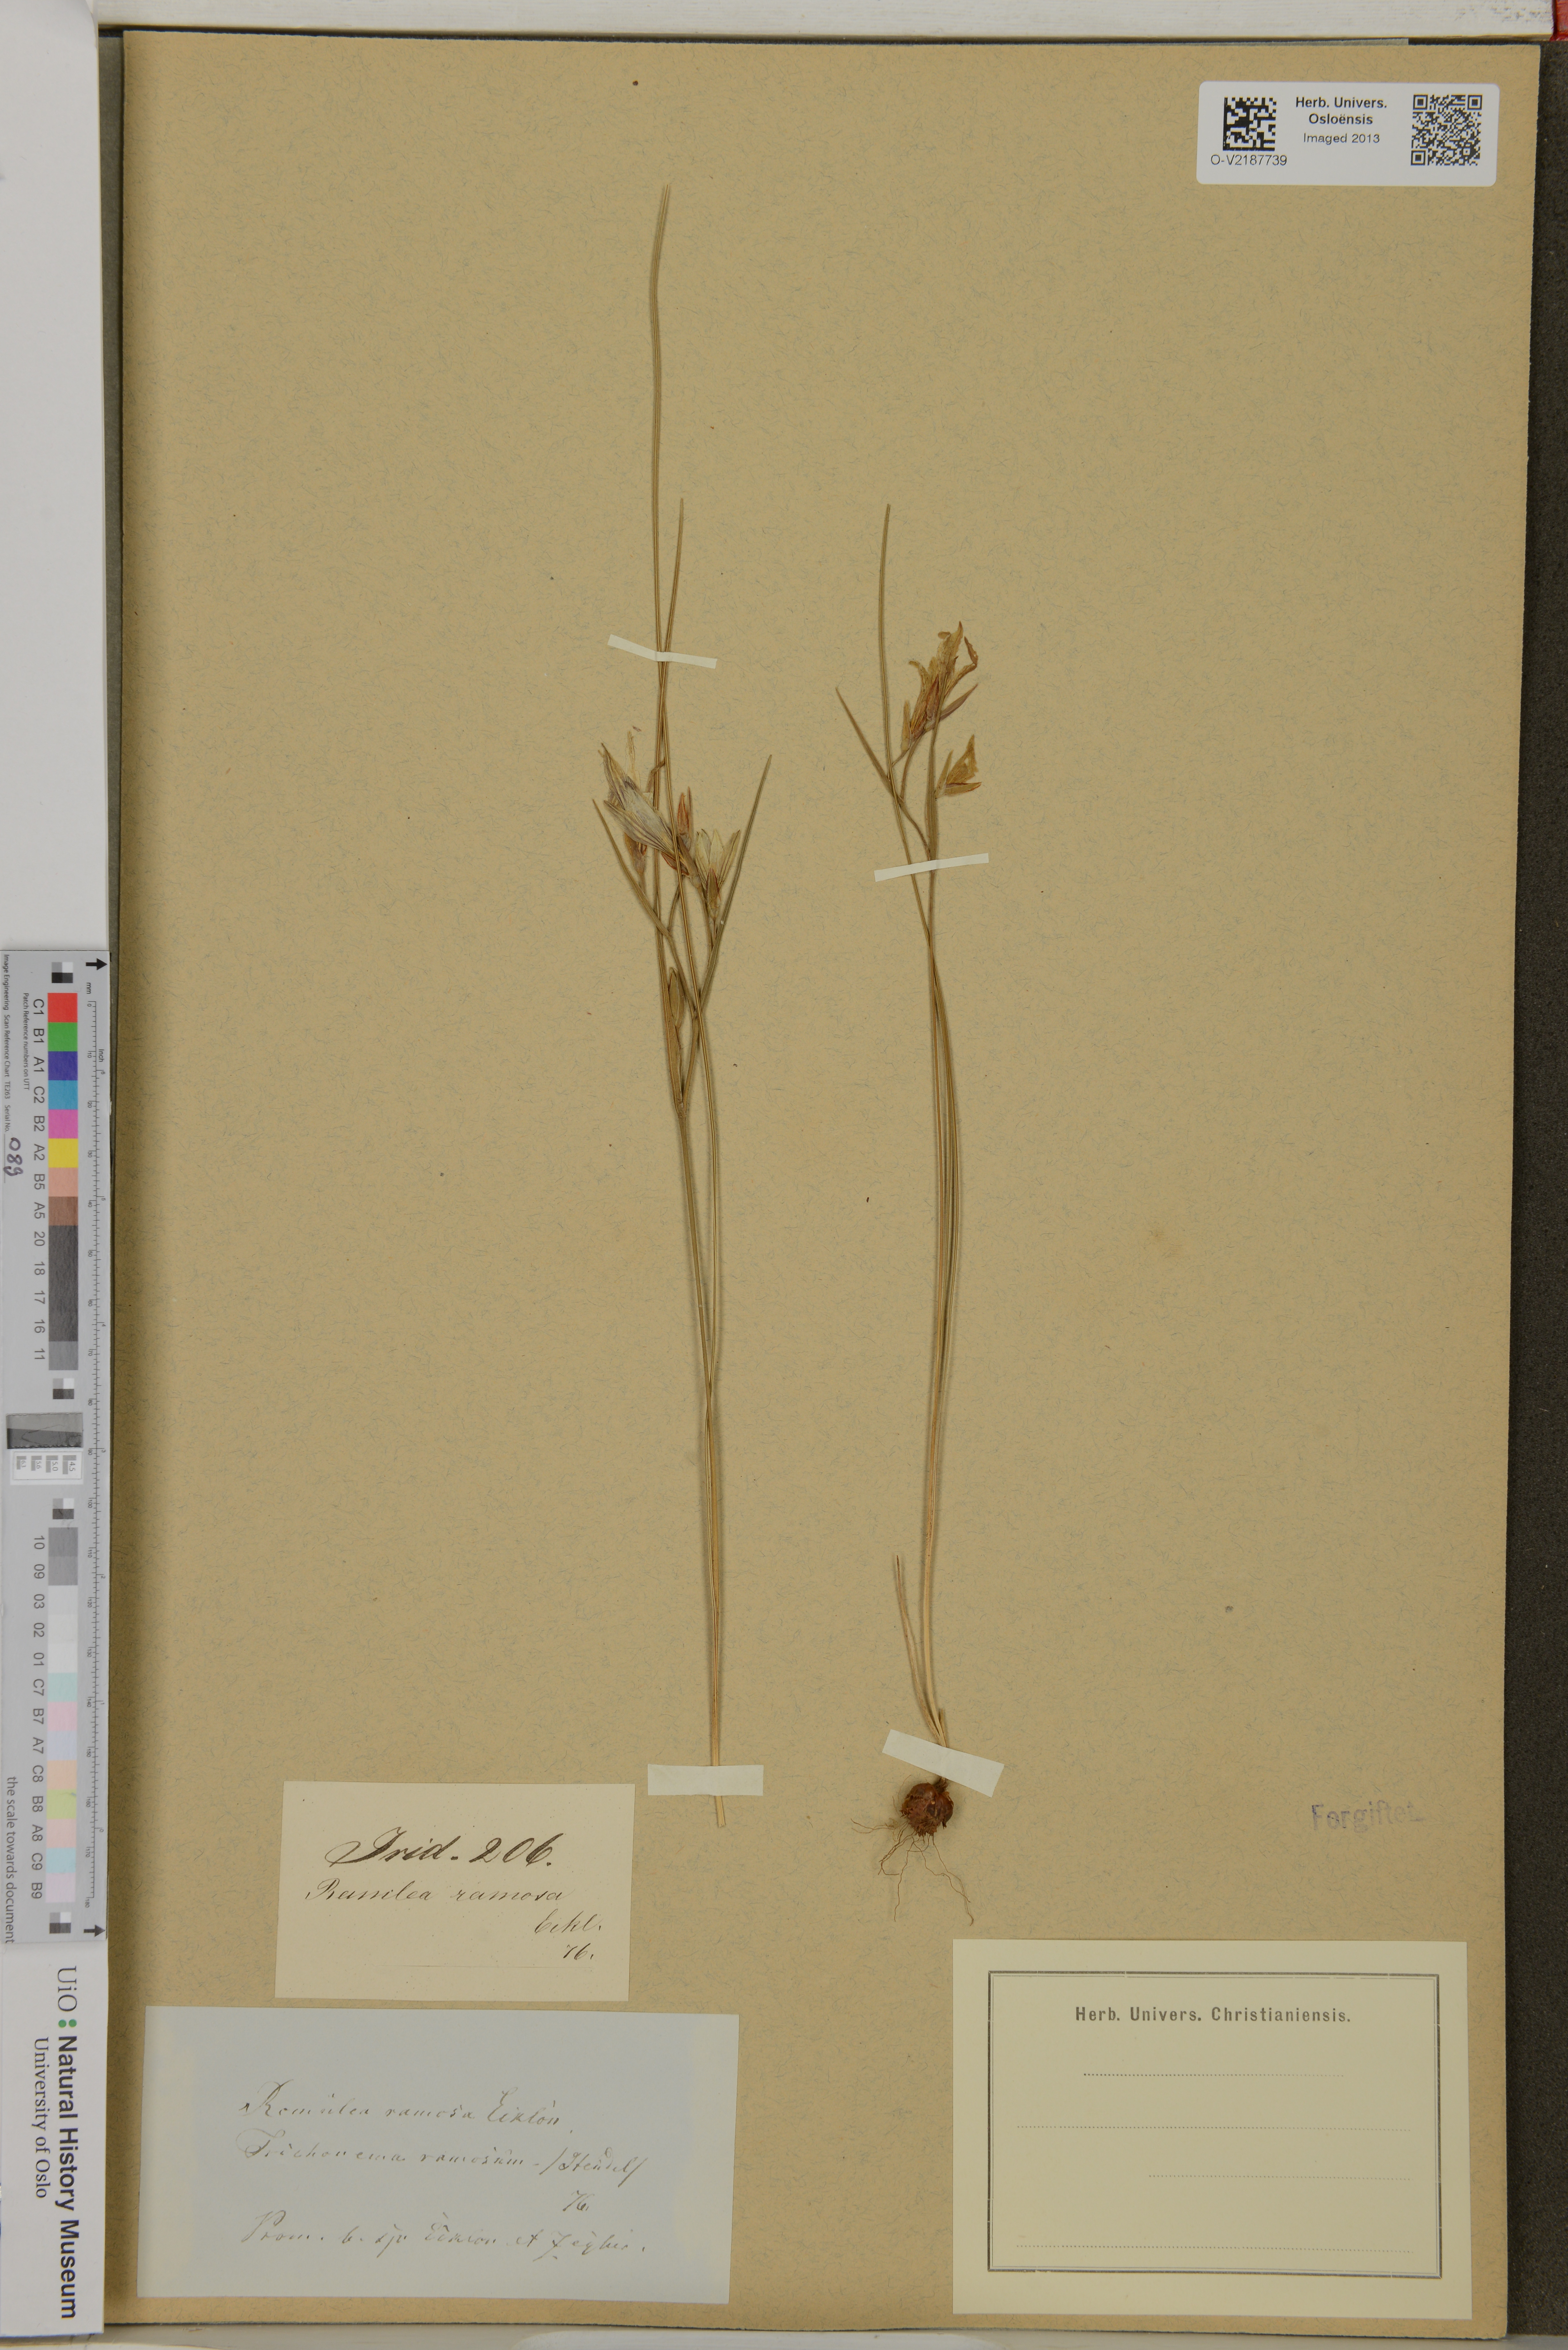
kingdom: Plantae
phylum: Tracheophyta
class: Liliopsida
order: Asparagales
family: Iridaceae
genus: Romulea
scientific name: Romulea hirsuta
